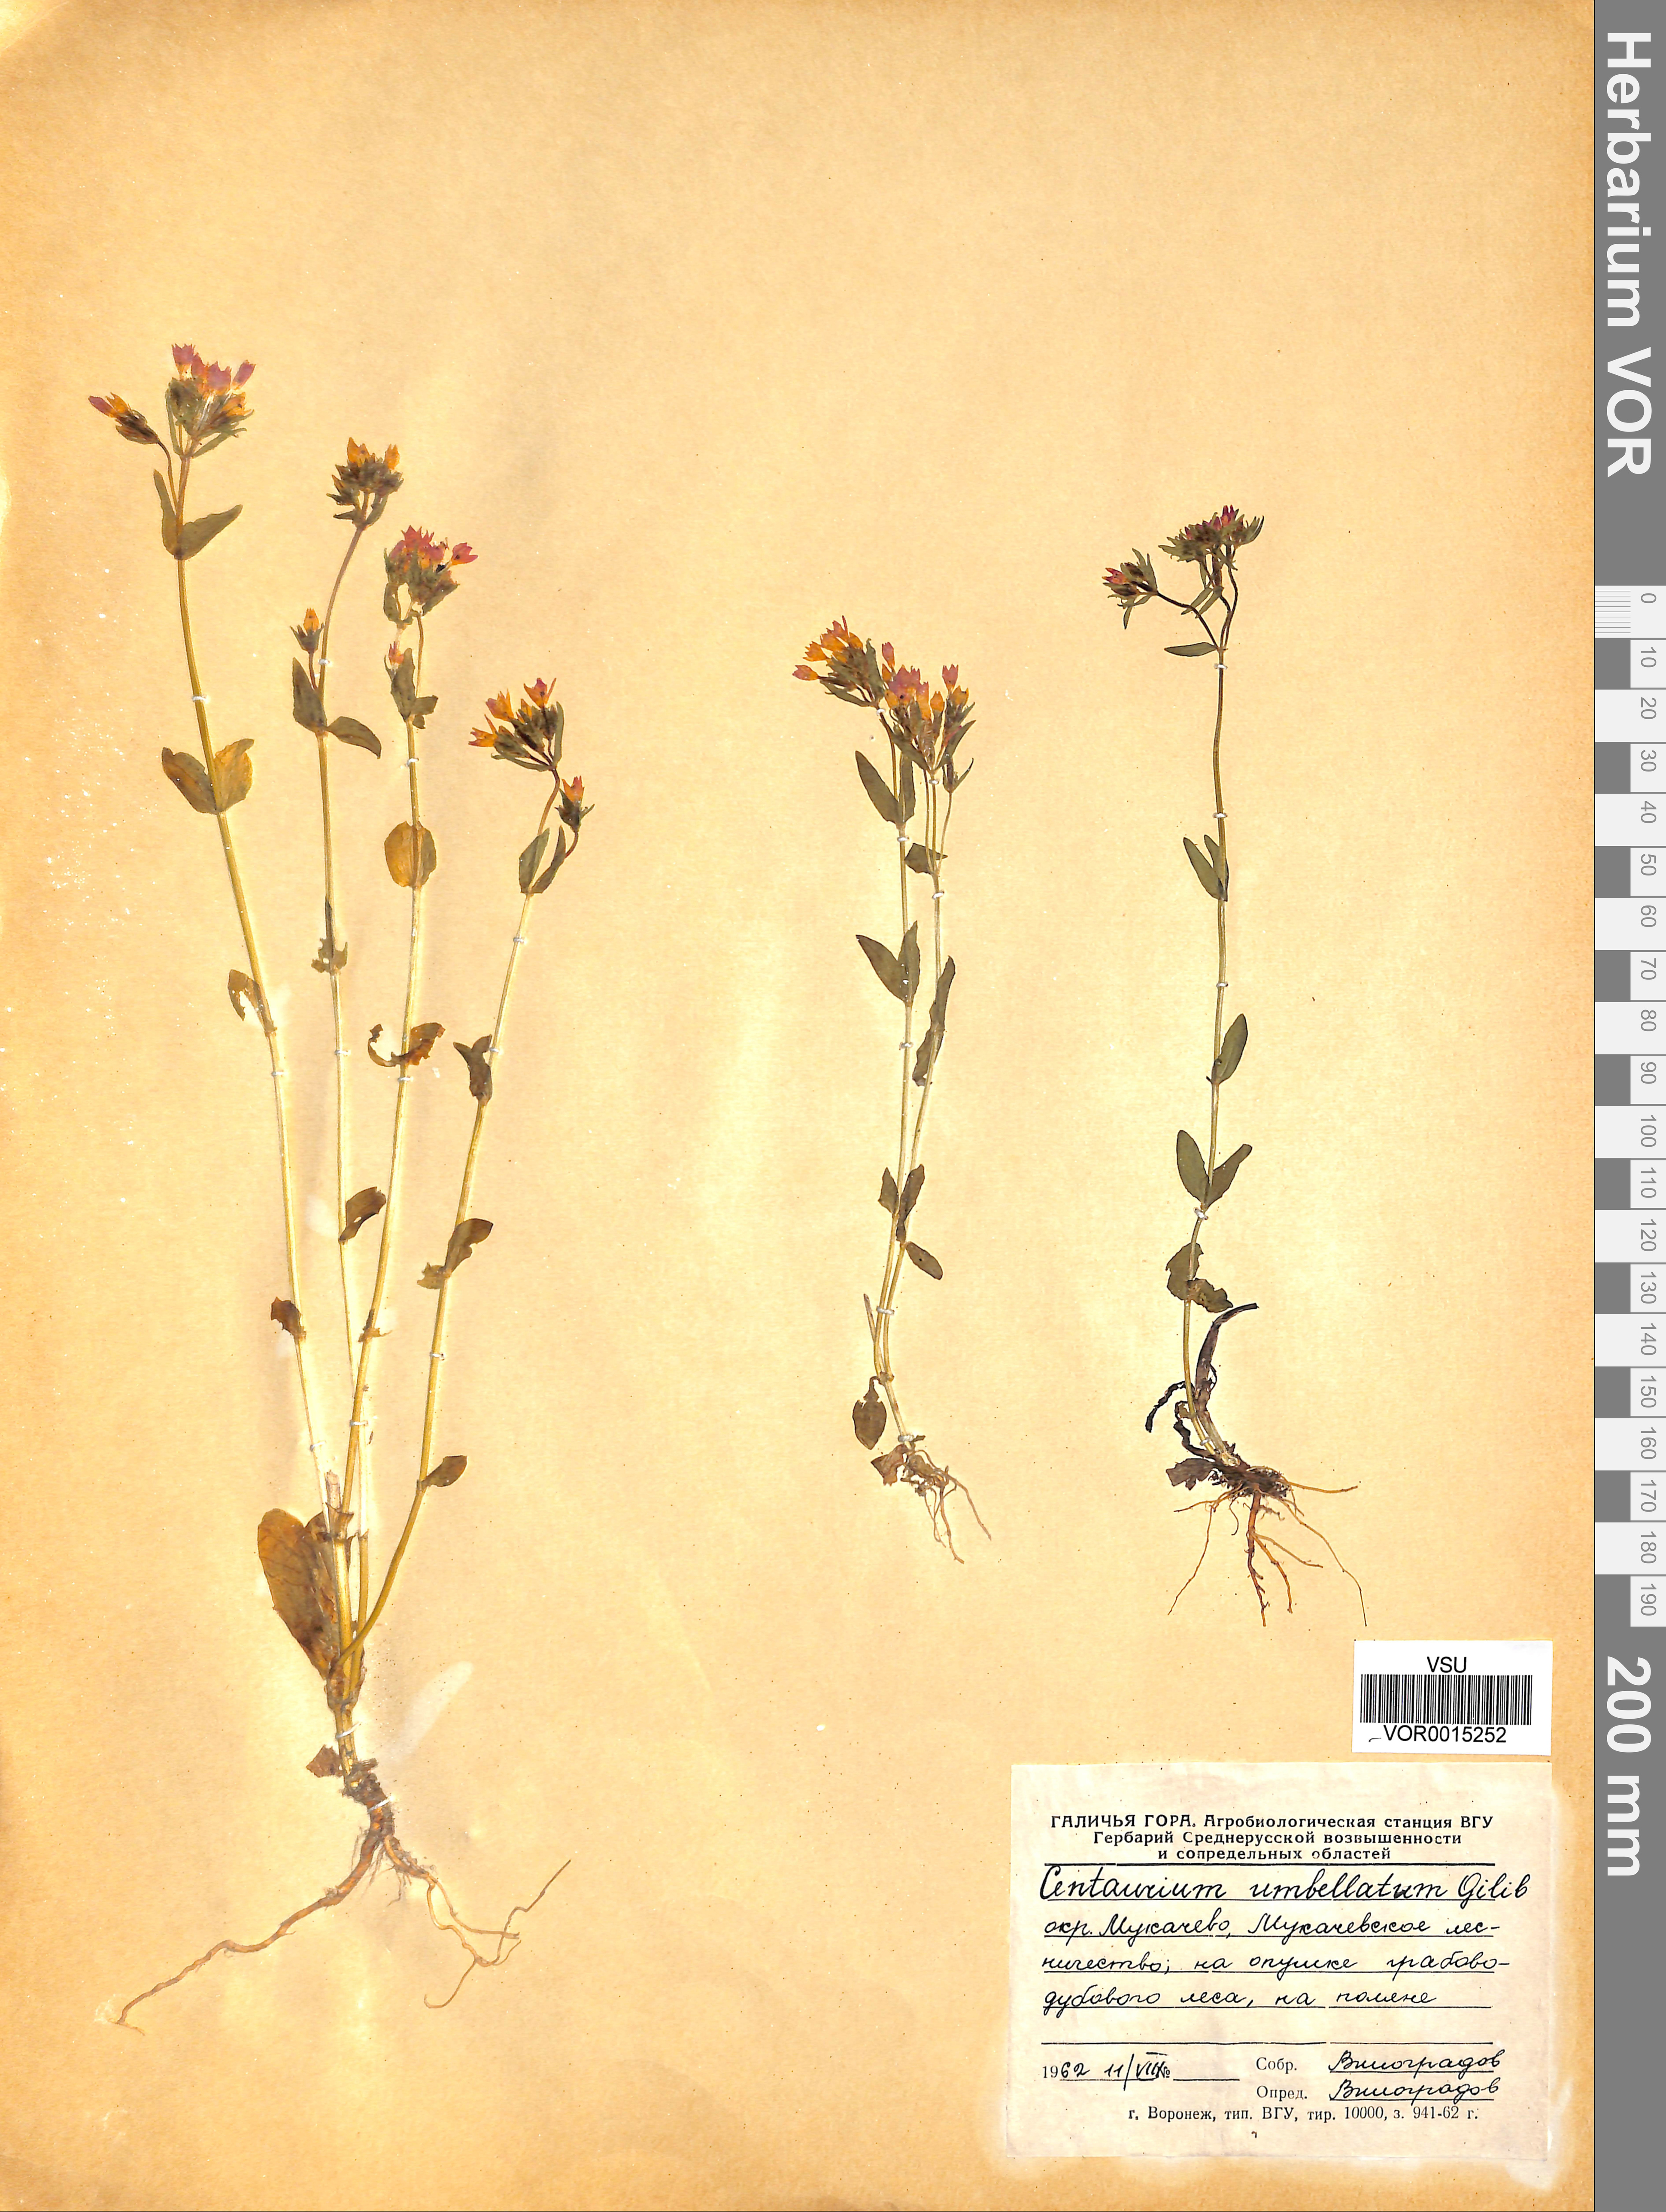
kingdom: Plantae
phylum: Tracheophyta
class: Magnoliopsida
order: Gentianales
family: Gentianaceae
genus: Centaurium
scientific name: Centaurium erythraea
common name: Common centaury
